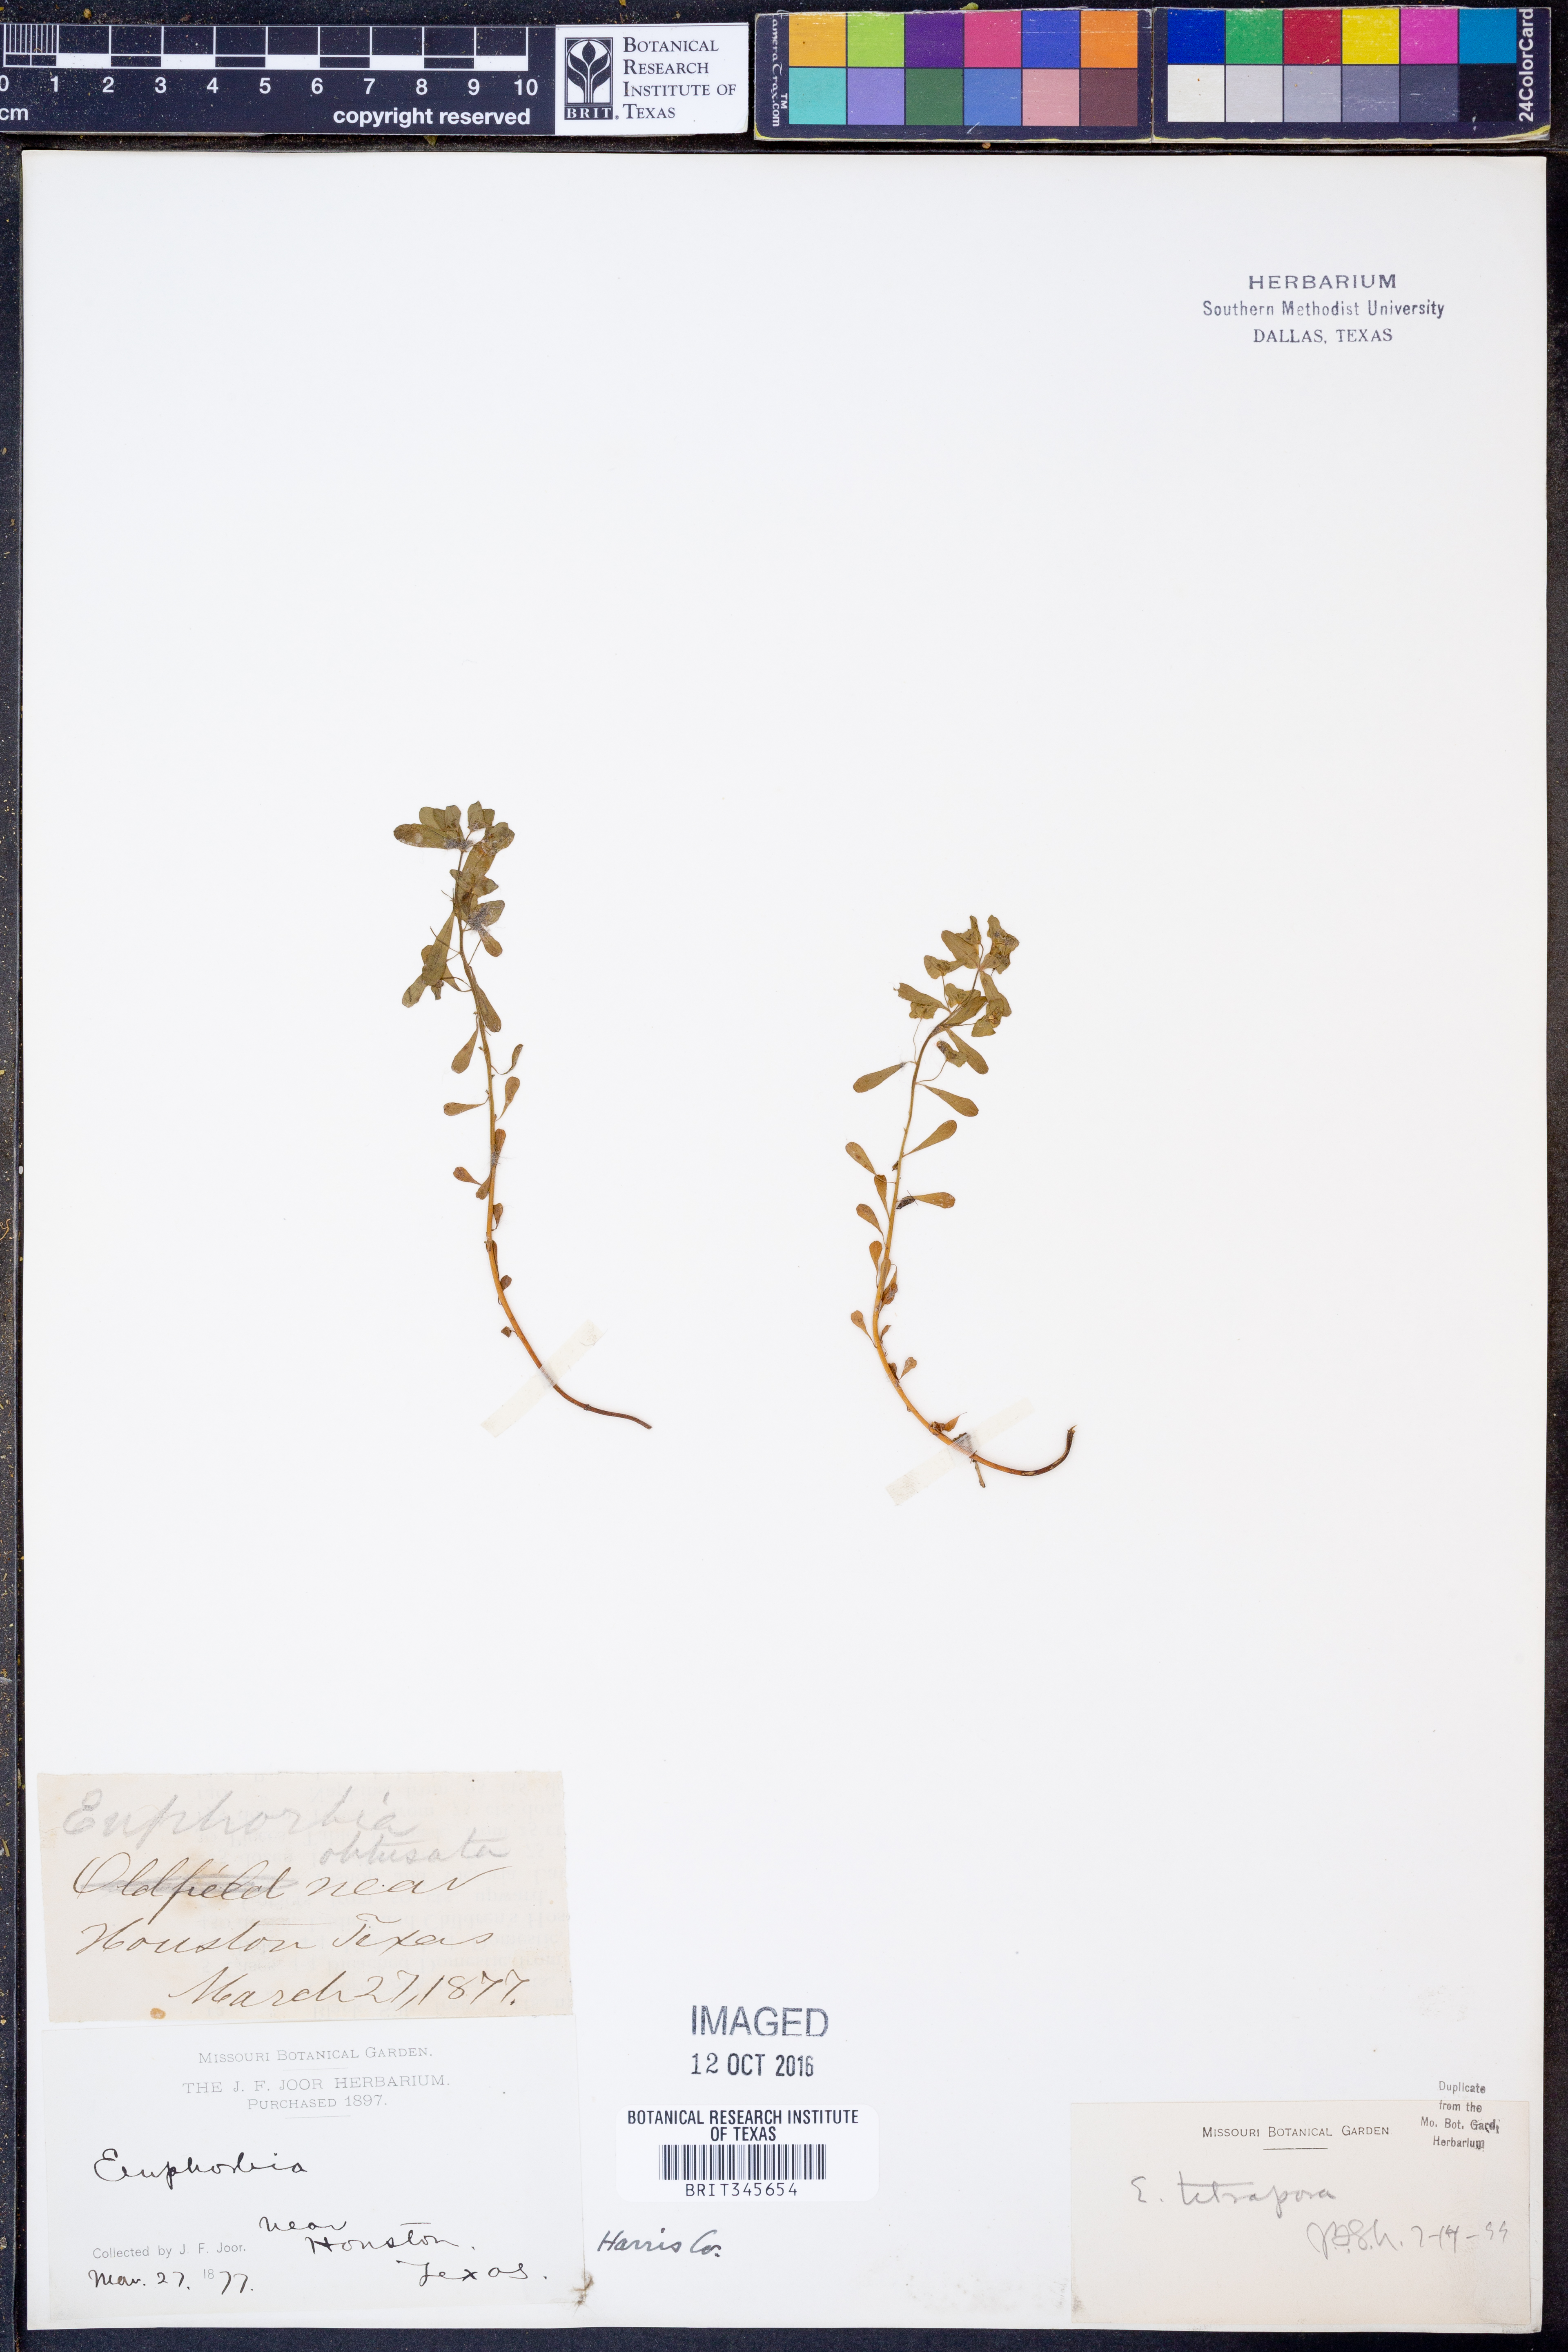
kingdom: Plantae
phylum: Tracheophyta
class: Magnoliopsida
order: Malpighiales
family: Euphorbiaceae
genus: Euphorbia
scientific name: Euphorbia tetrapora
